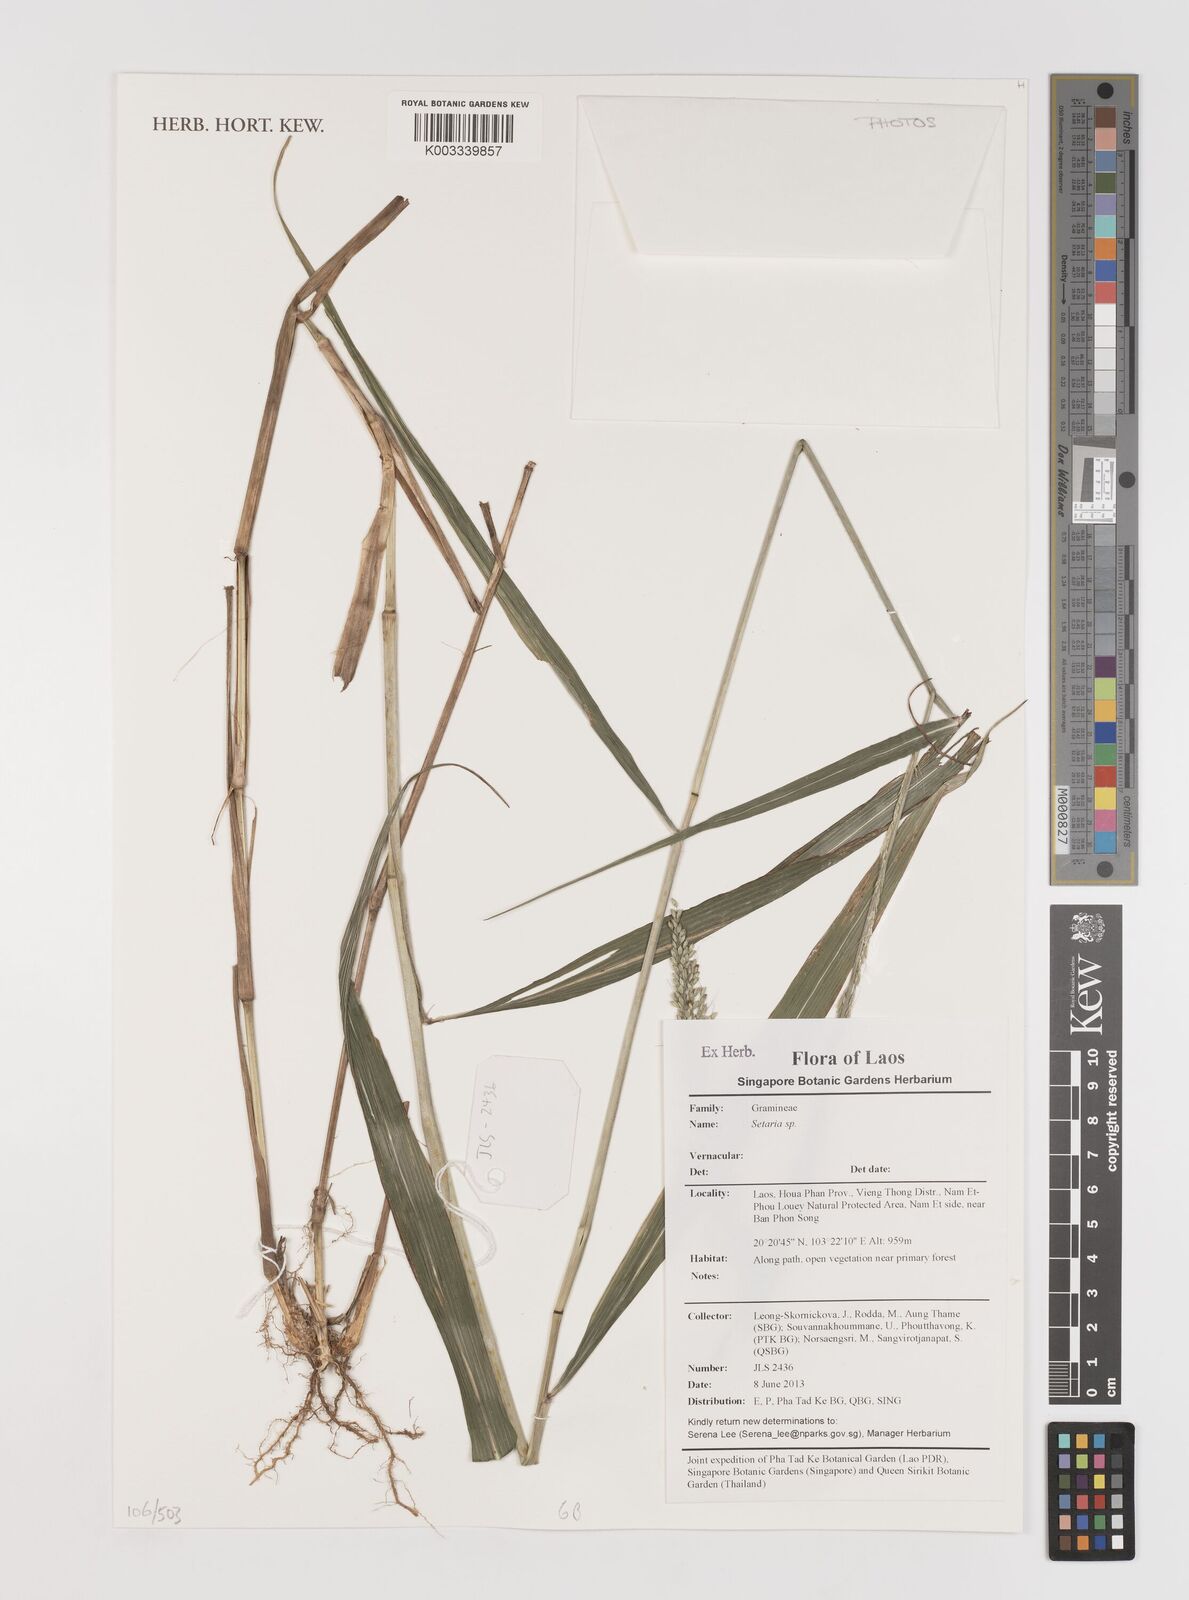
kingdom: Plantae
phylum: Tracheophyta
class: Liliopsida
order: Poales
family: Poaceae
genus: Setaria
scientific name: Setaria
